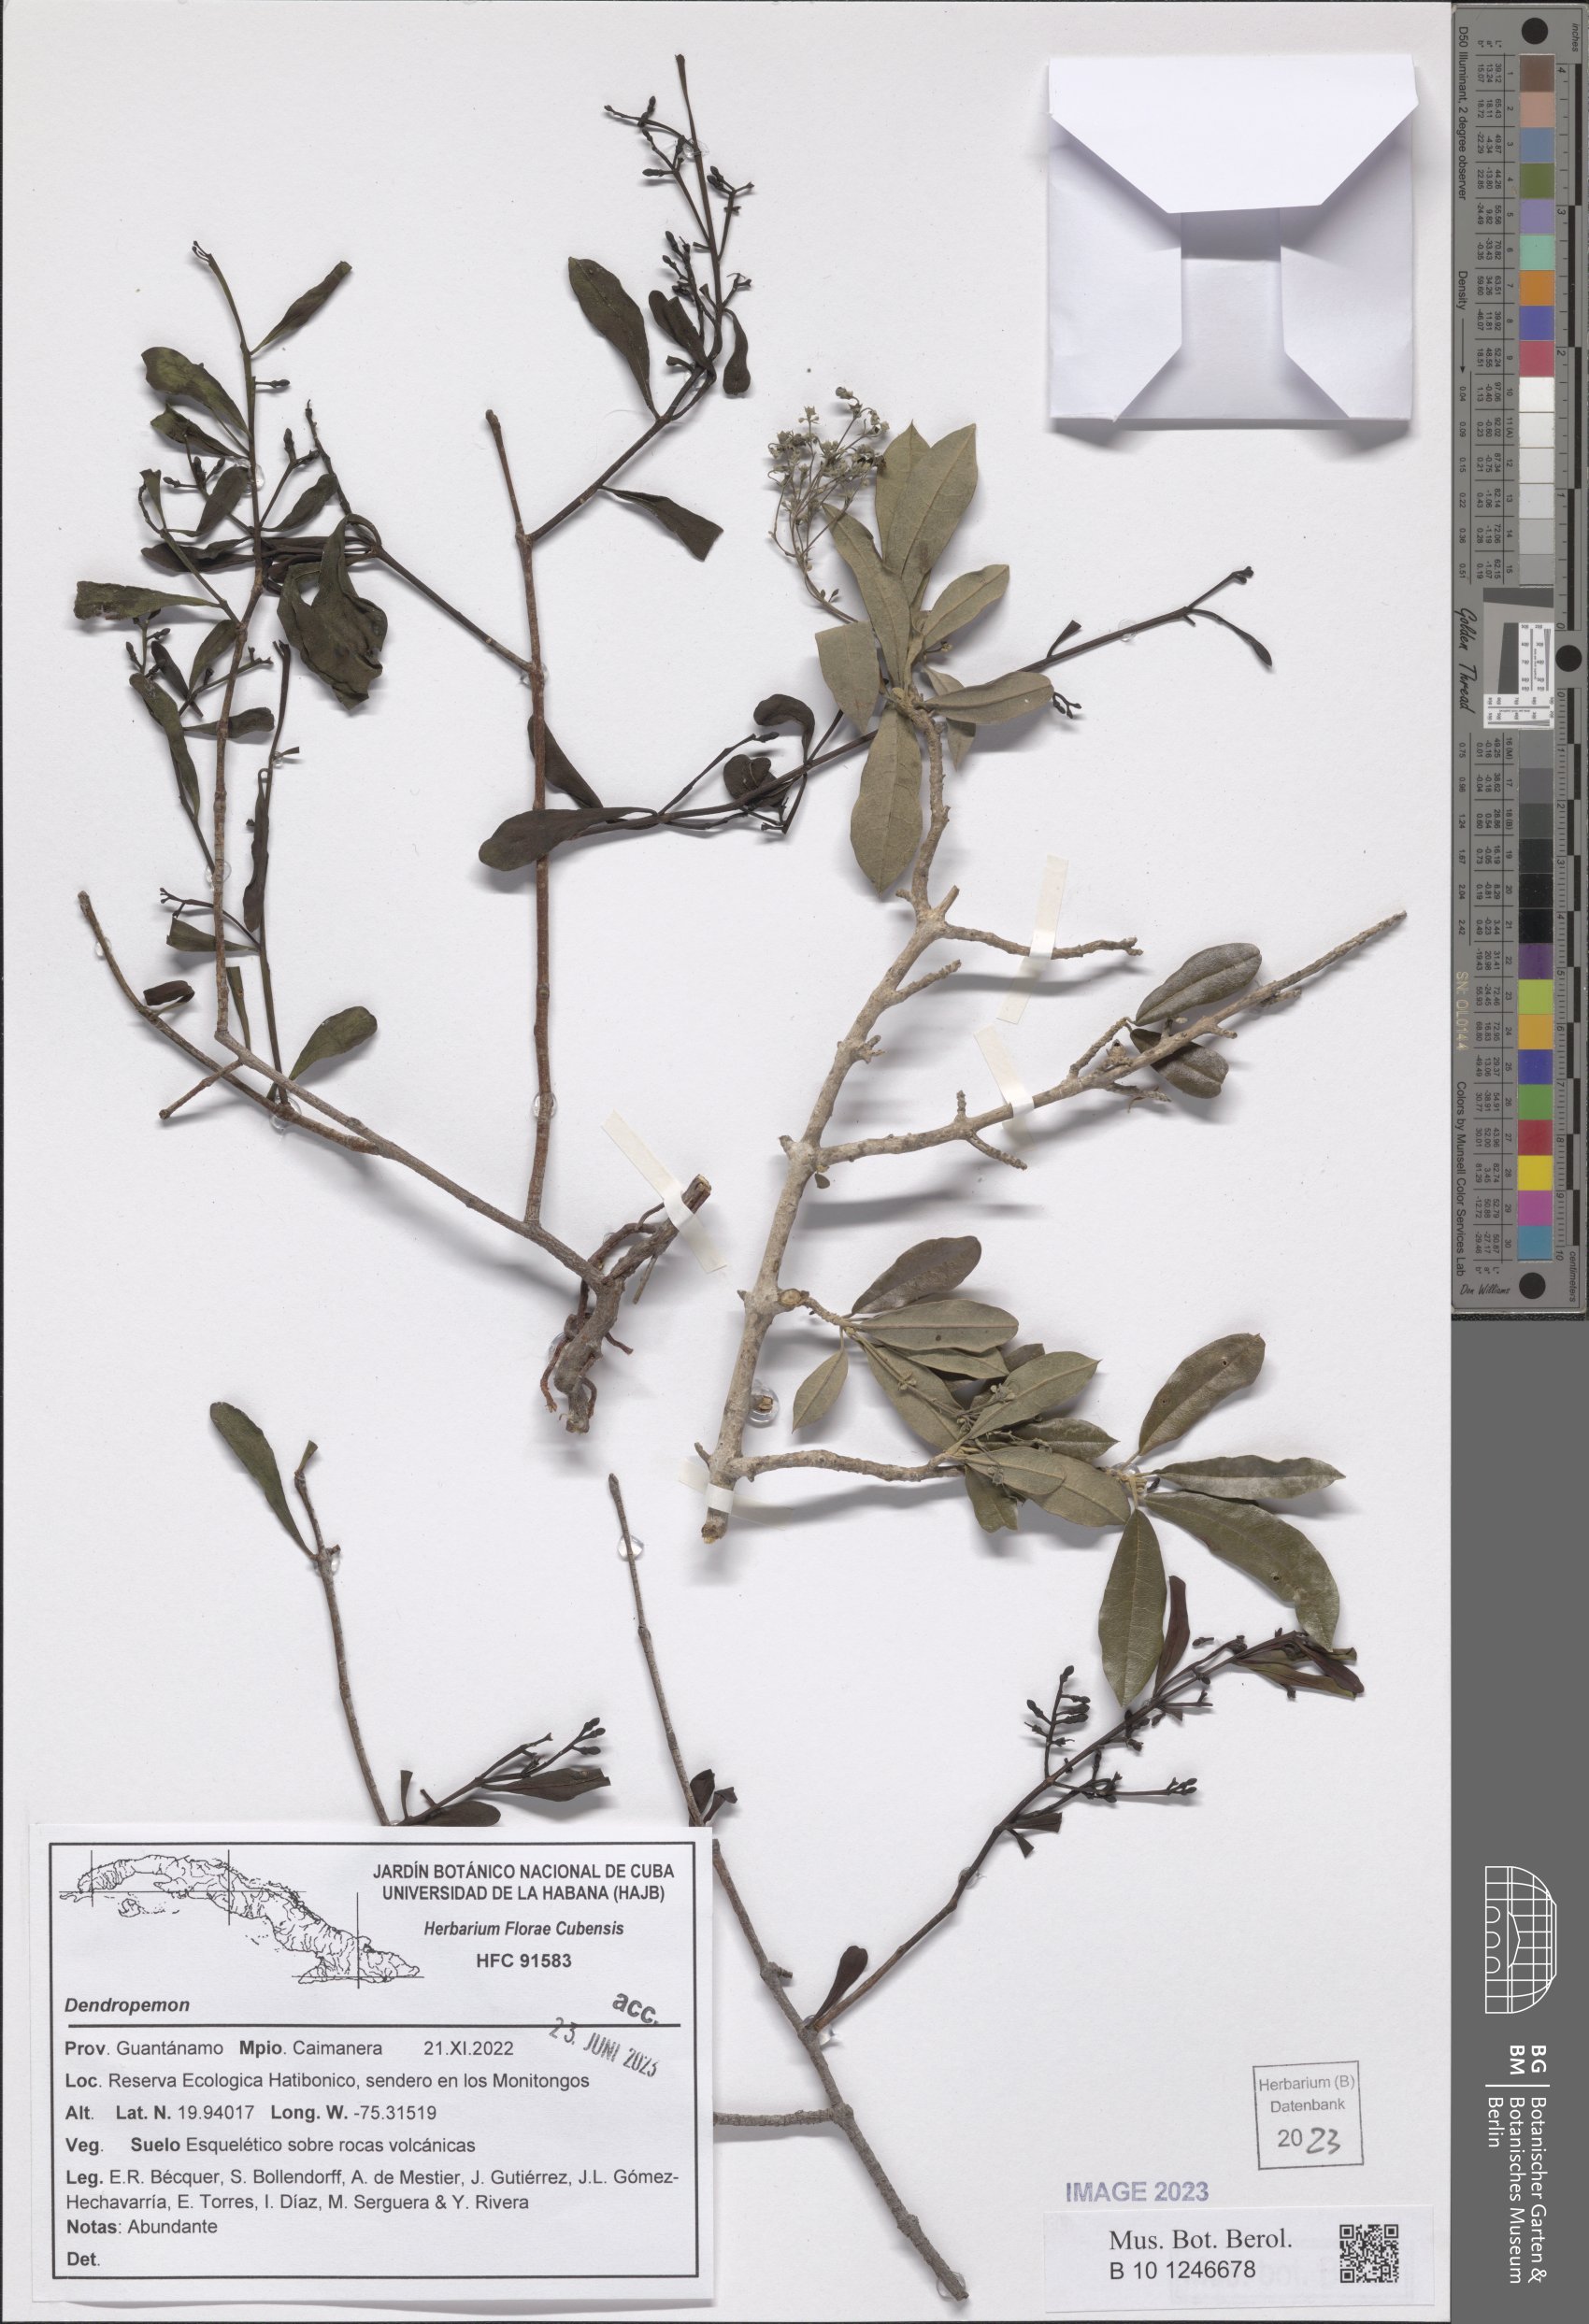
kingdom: Plantae
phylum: Tracheophyta
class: Magnoliopsida
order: Santalales
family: Loranthaceae
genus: Dendropemon
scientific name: Dendropemon
